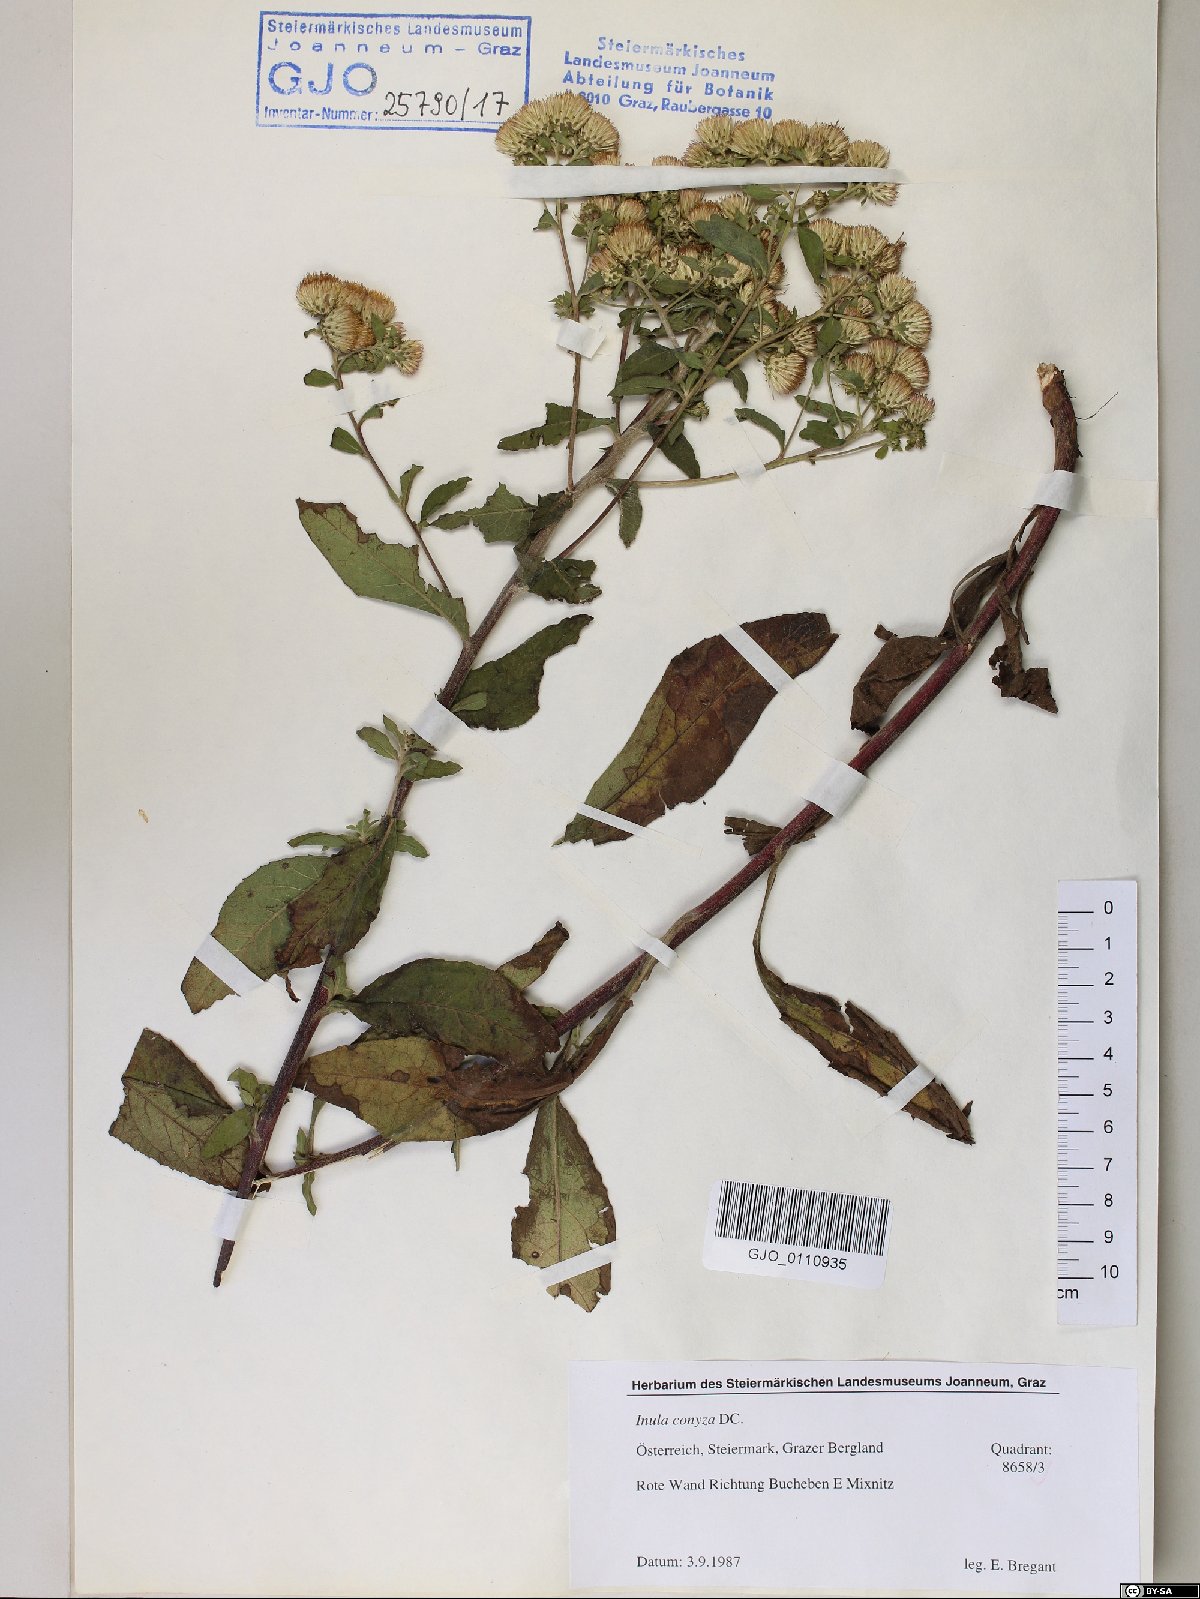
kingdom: Plantae
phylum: Tracheophyta
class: Magnoliopsida
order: Asterales
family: Asteraceae
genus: Pentanema
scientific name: Pentanema squarrosum
